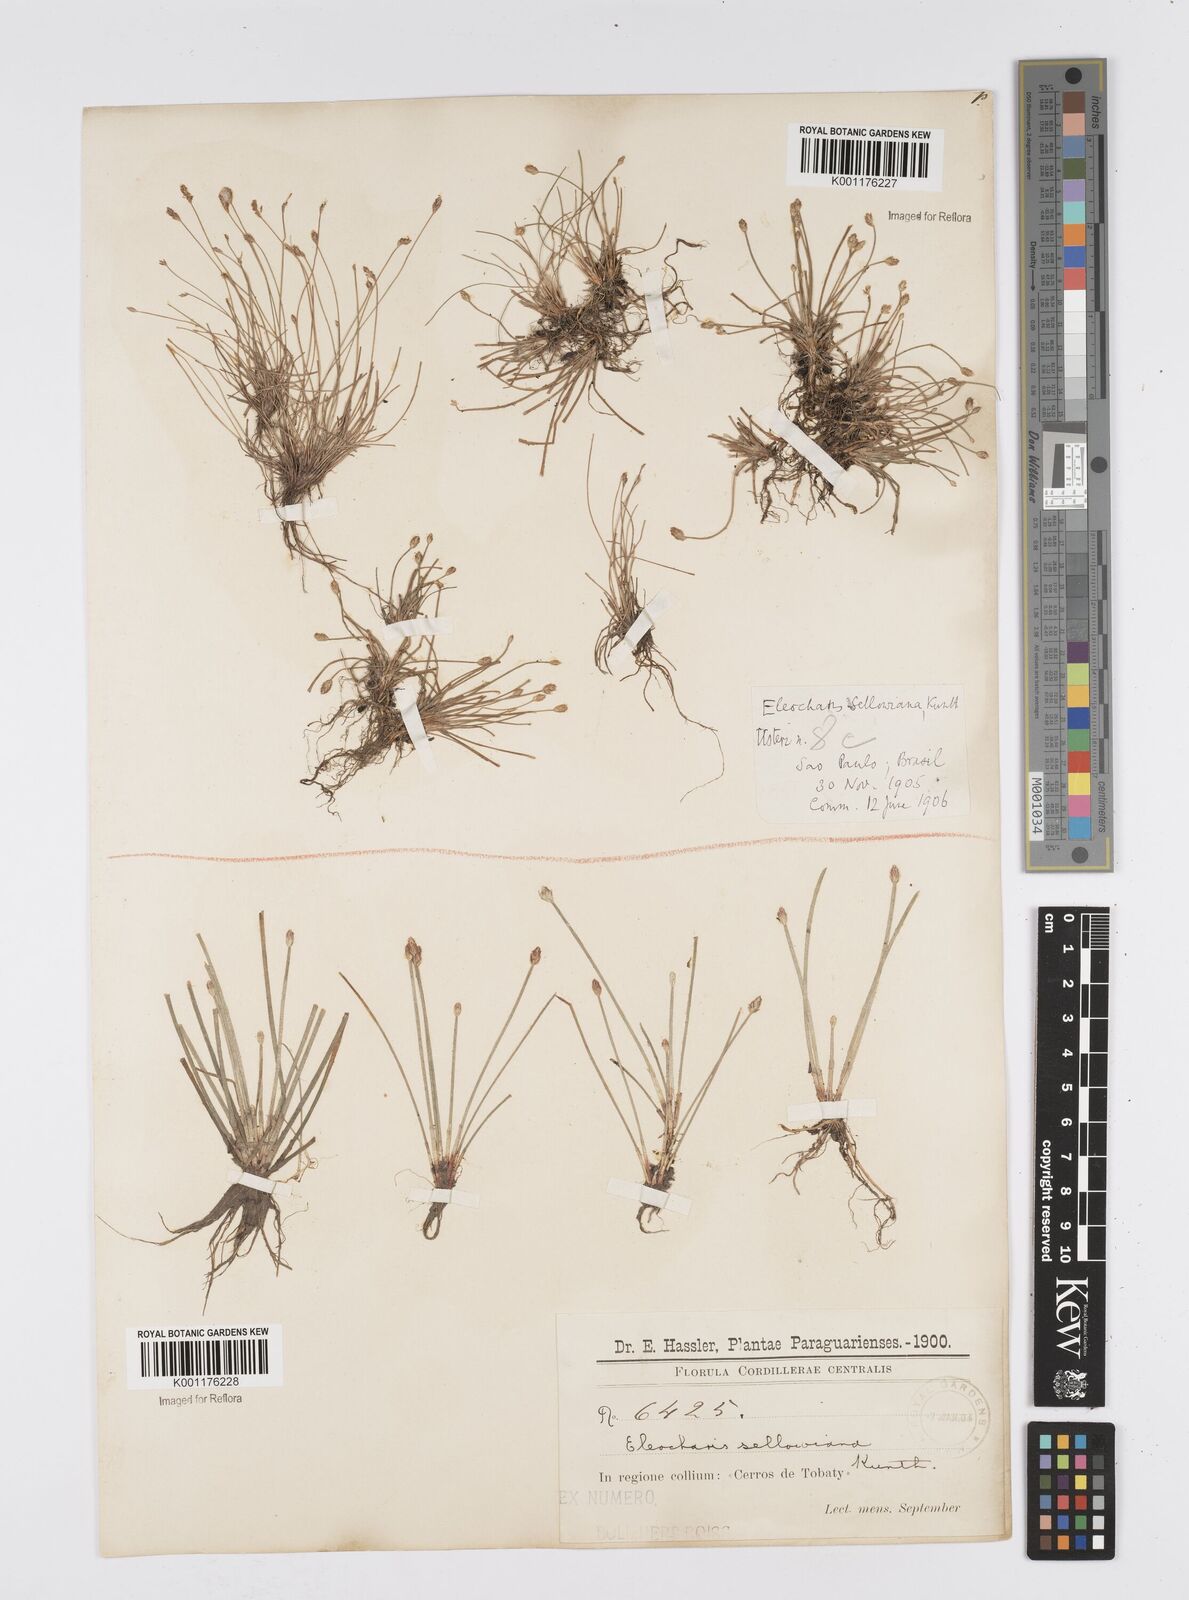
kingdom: Plantae
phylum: Tracheophyta
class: Liliopsida
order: Poales
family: Cyperaceae
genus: Eleocharis
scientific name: Eleocharis sellowiana
